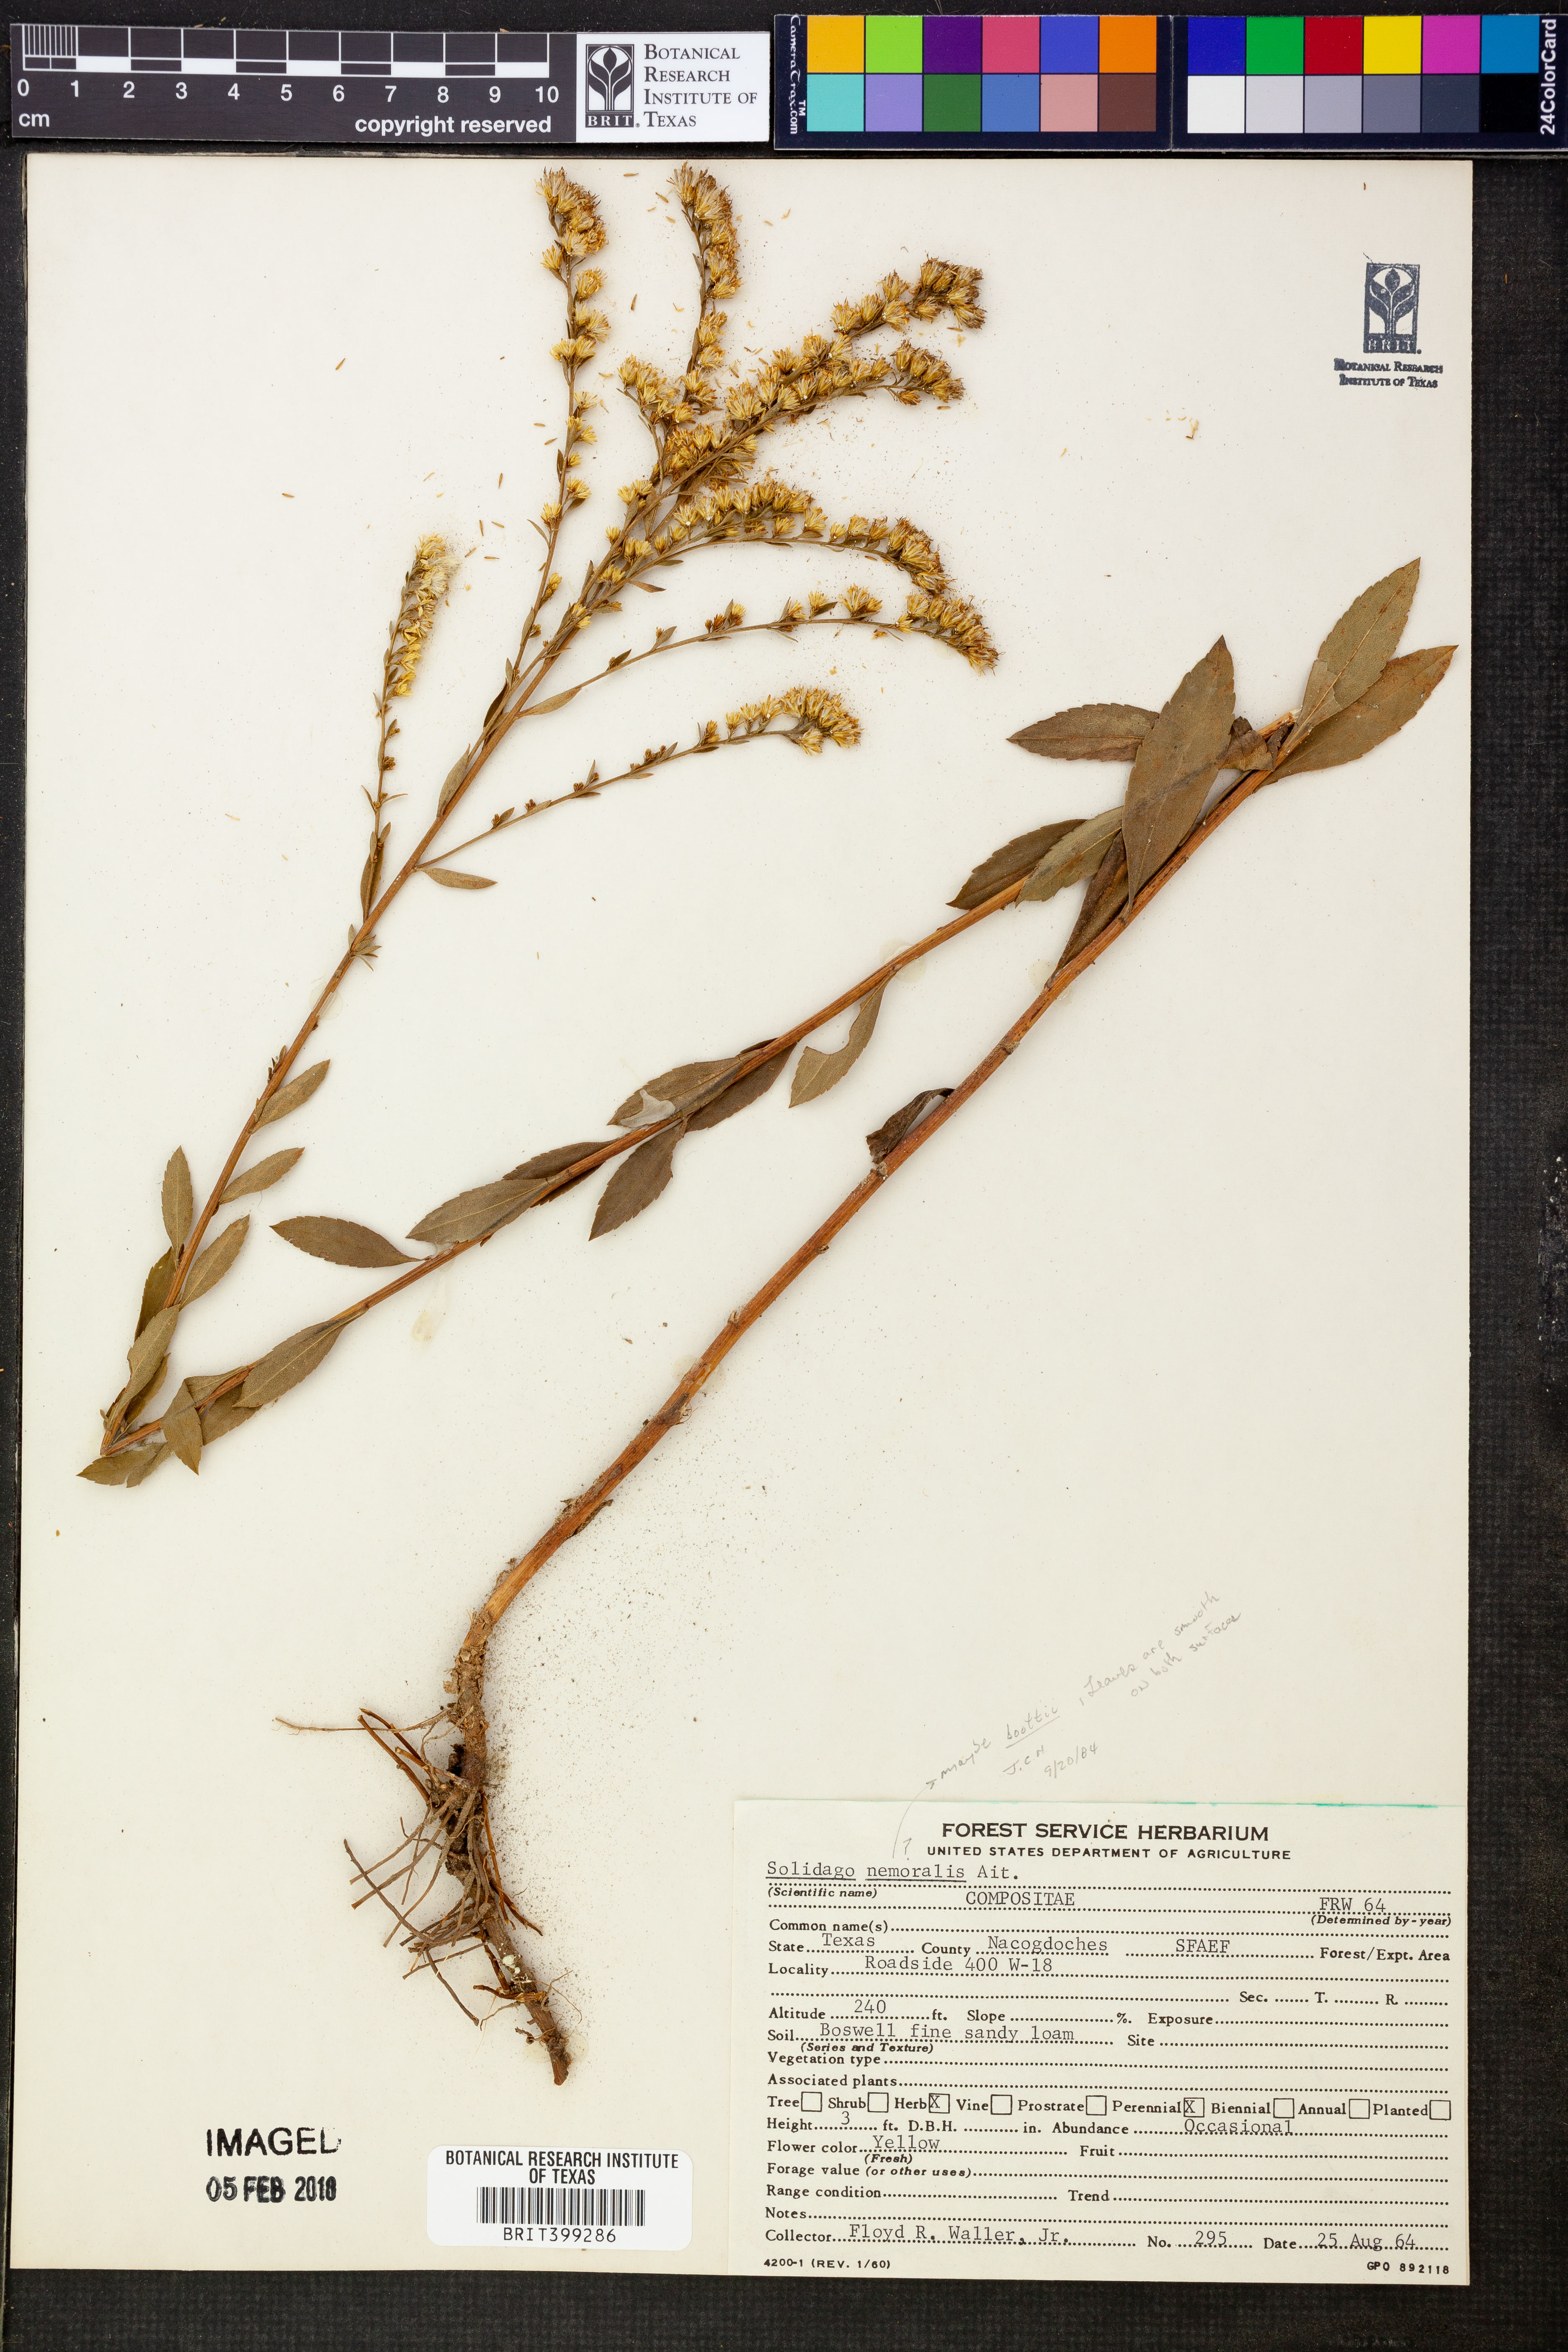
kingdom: Plantae
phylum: Tracheophyta
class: Magnoliopsida
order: Asterales
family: Asteraceae
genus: Solidago
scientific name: Solidago nemoralis
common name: Grey goldenrod
